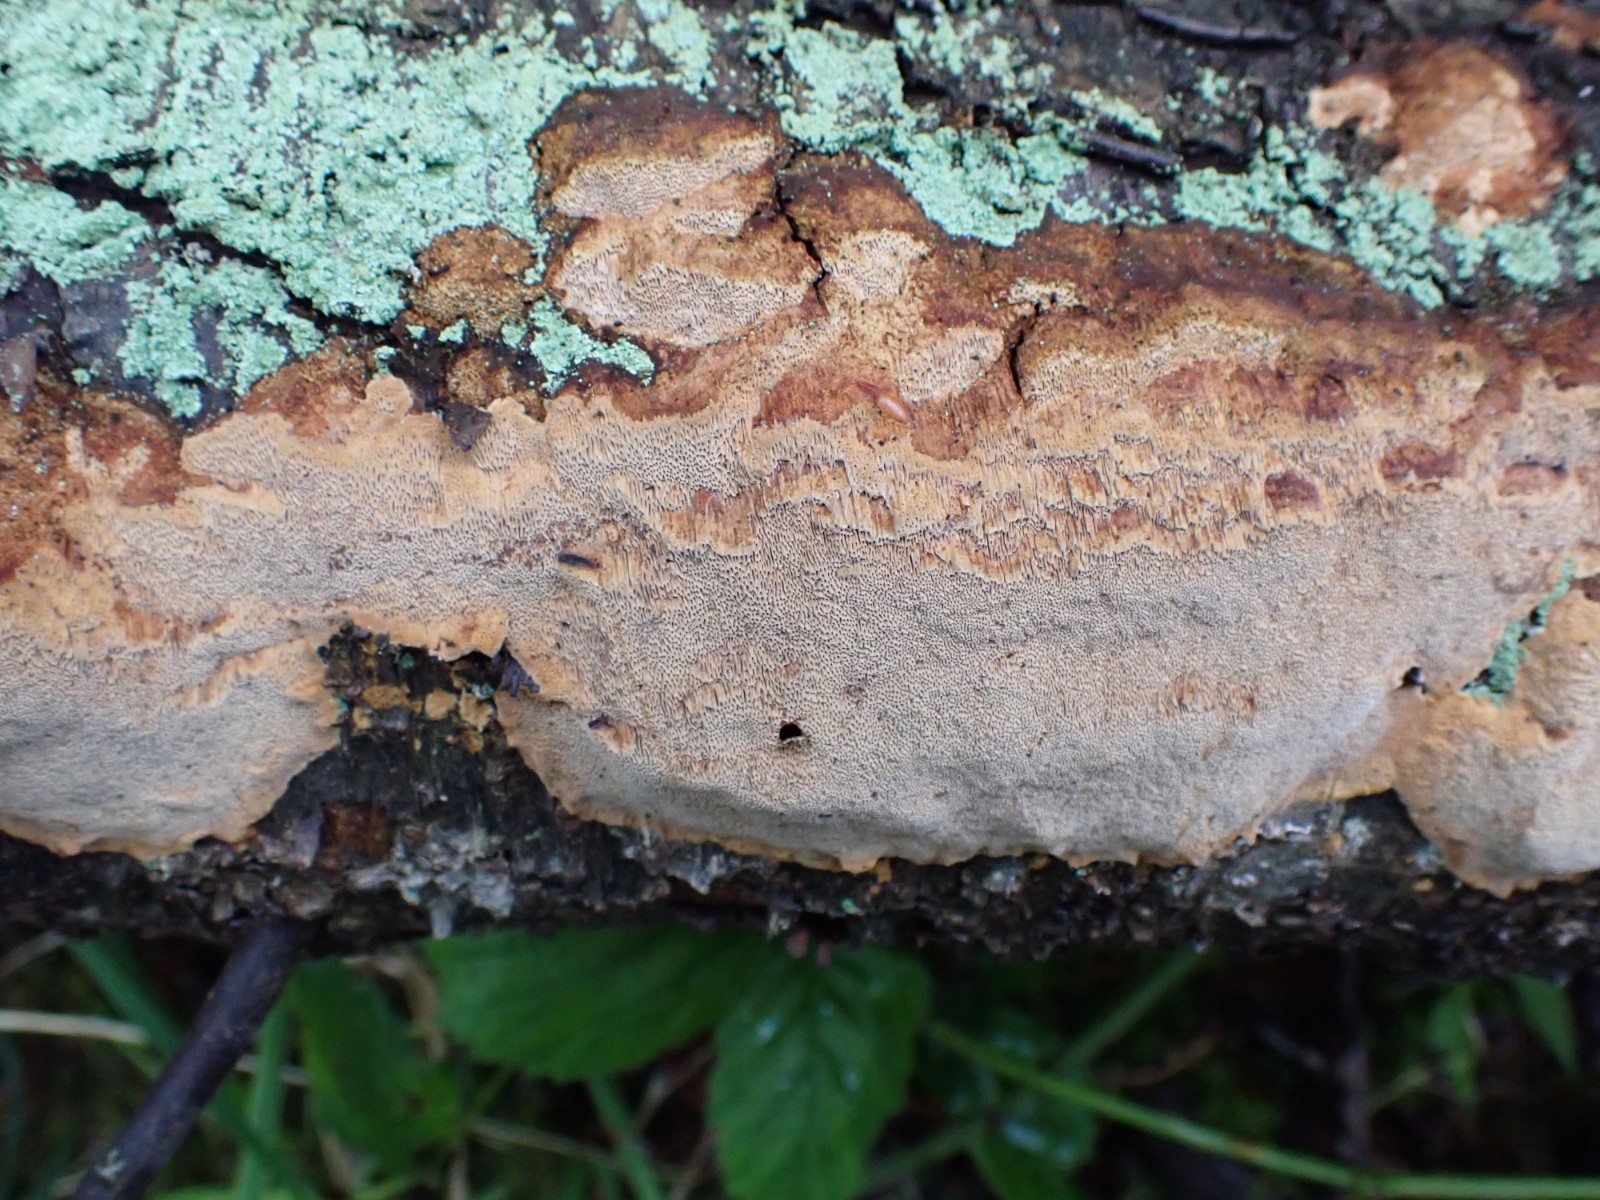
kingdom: Fungi
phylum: Basidiomycota
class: Agaricomycetes
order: Hymenochaetales
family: Hymenochaetaceae
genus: Fuscoporia
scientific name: Fuscoporia ferrea
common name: skorpe-ildporesvamp
